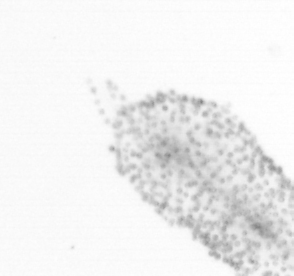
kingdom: Chromista
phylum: Ochrophyta
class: Bacillariophyceae
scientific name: Bacillariophyceae
